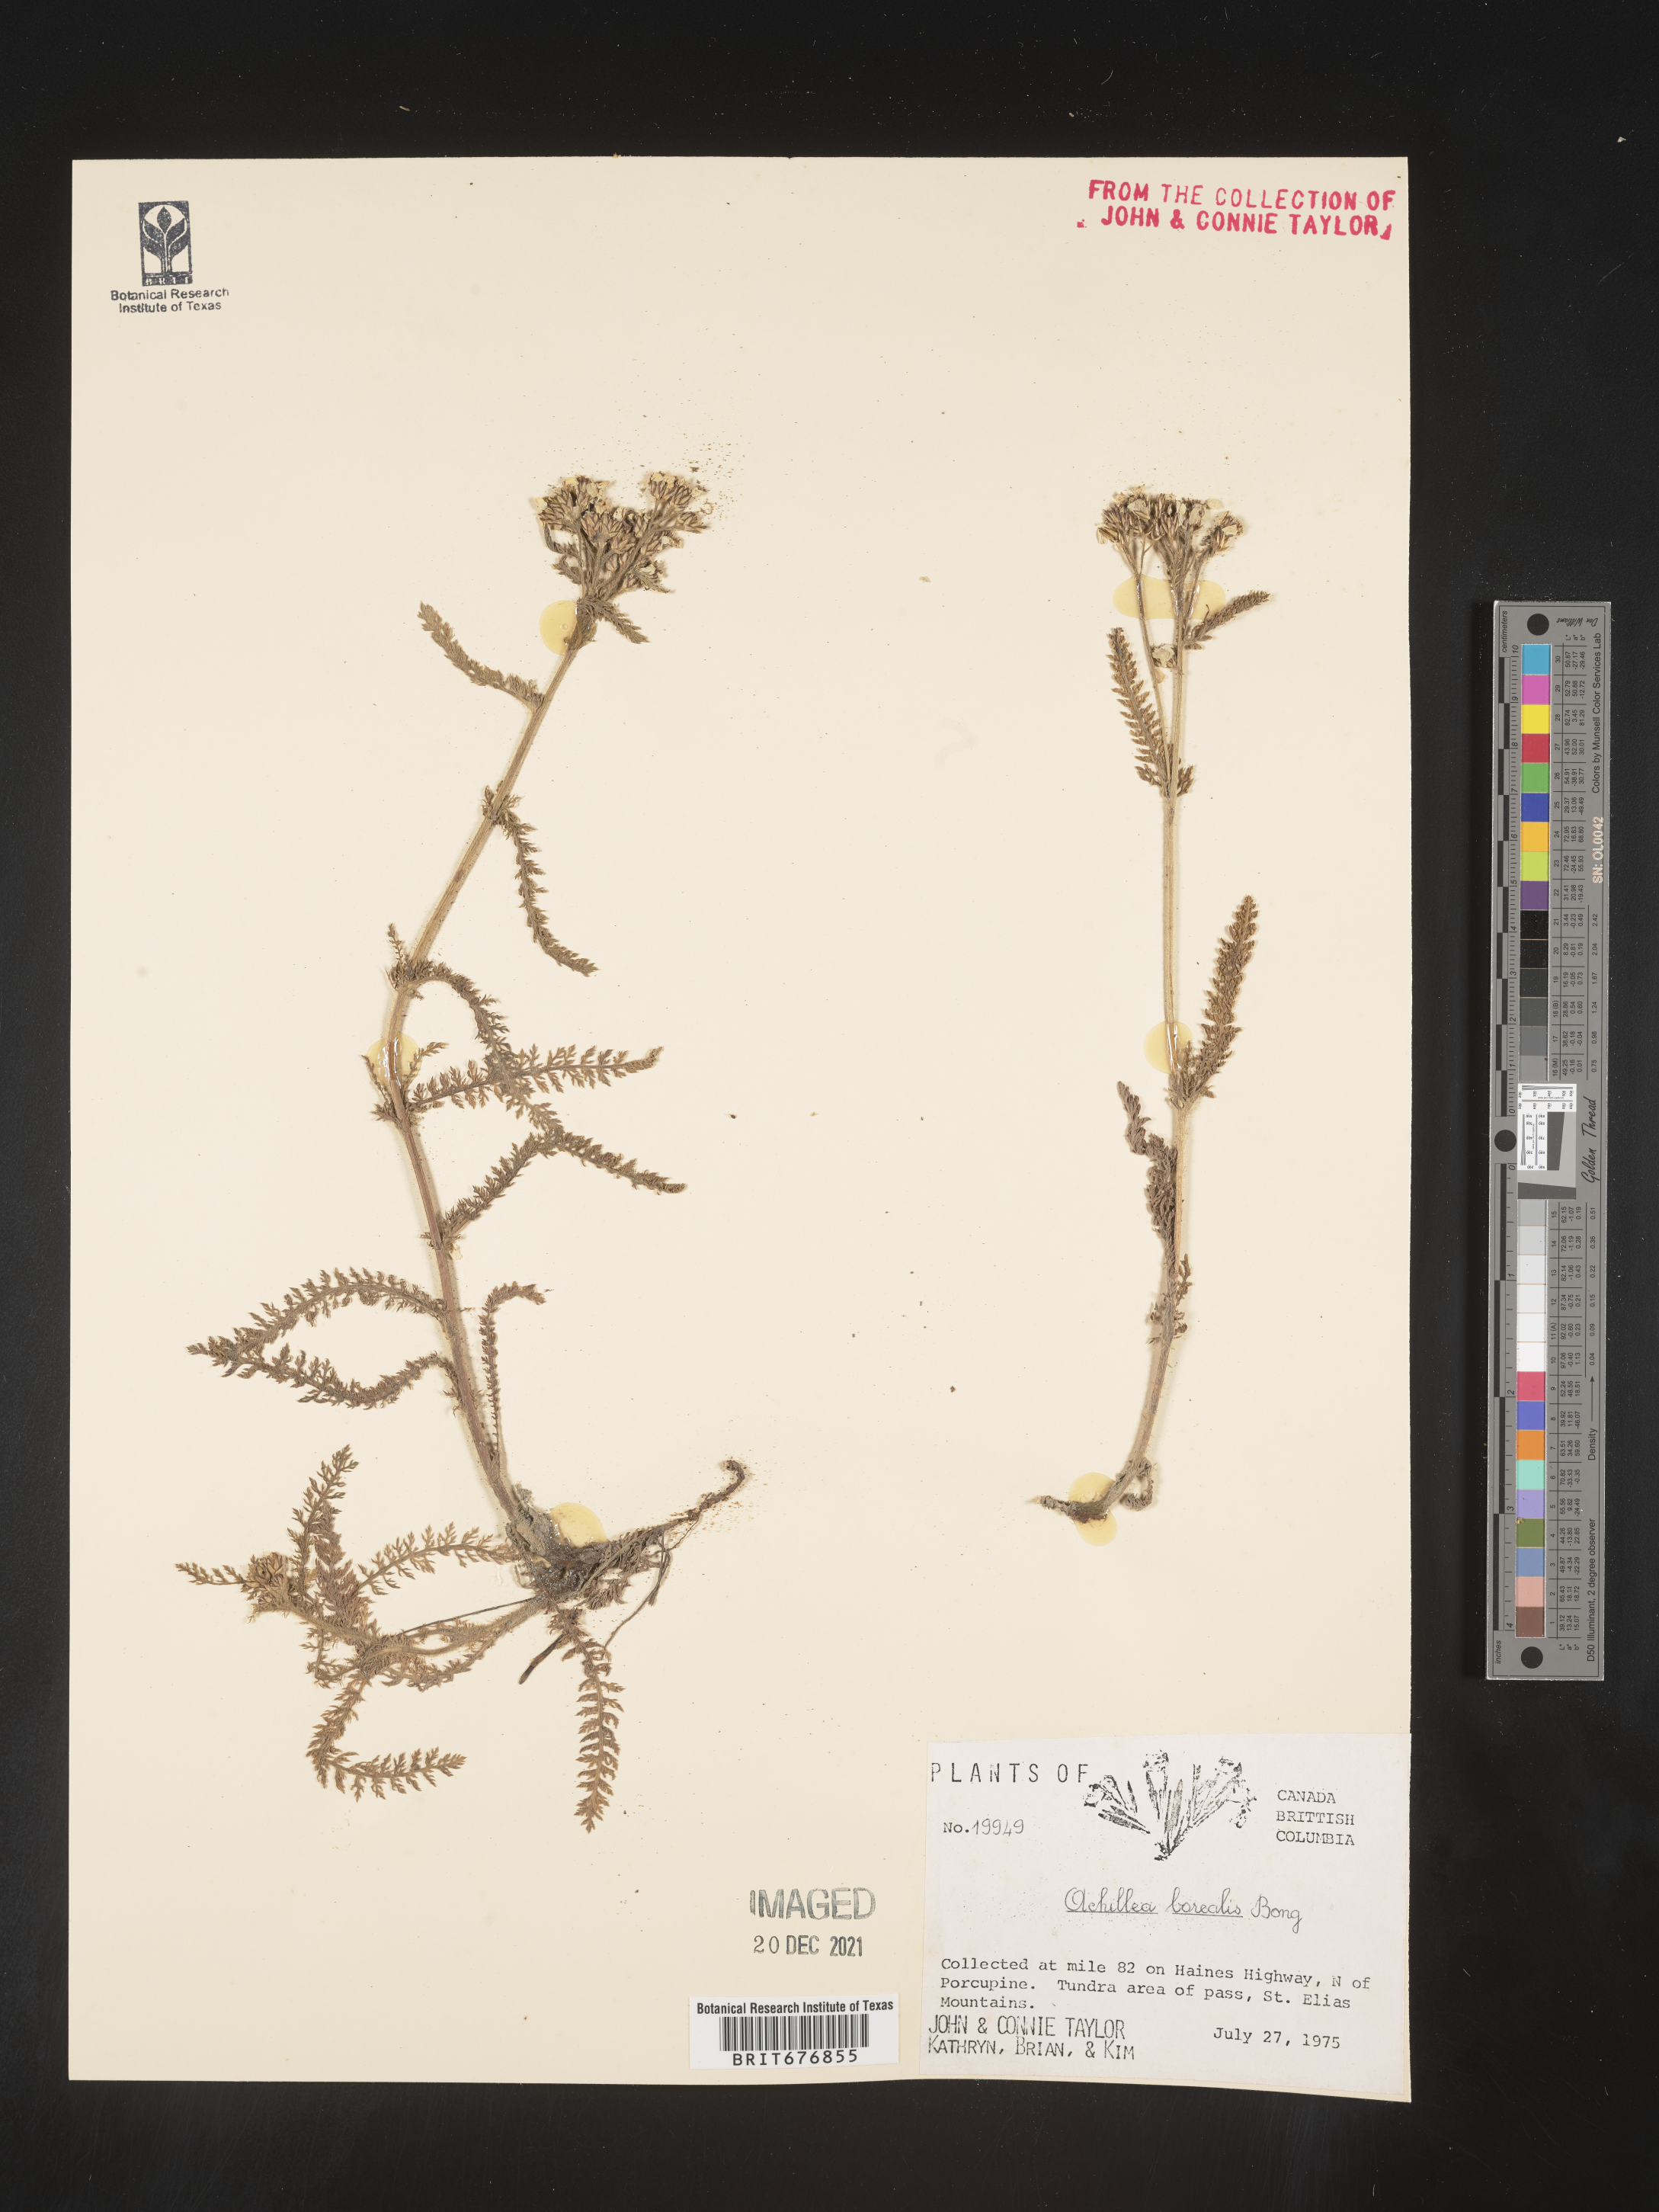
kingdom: Plantae
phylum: Tracheophyta
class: Magnoliopsida
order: Asterales
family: Asteraceae
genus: Achillea
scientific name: Achillea
